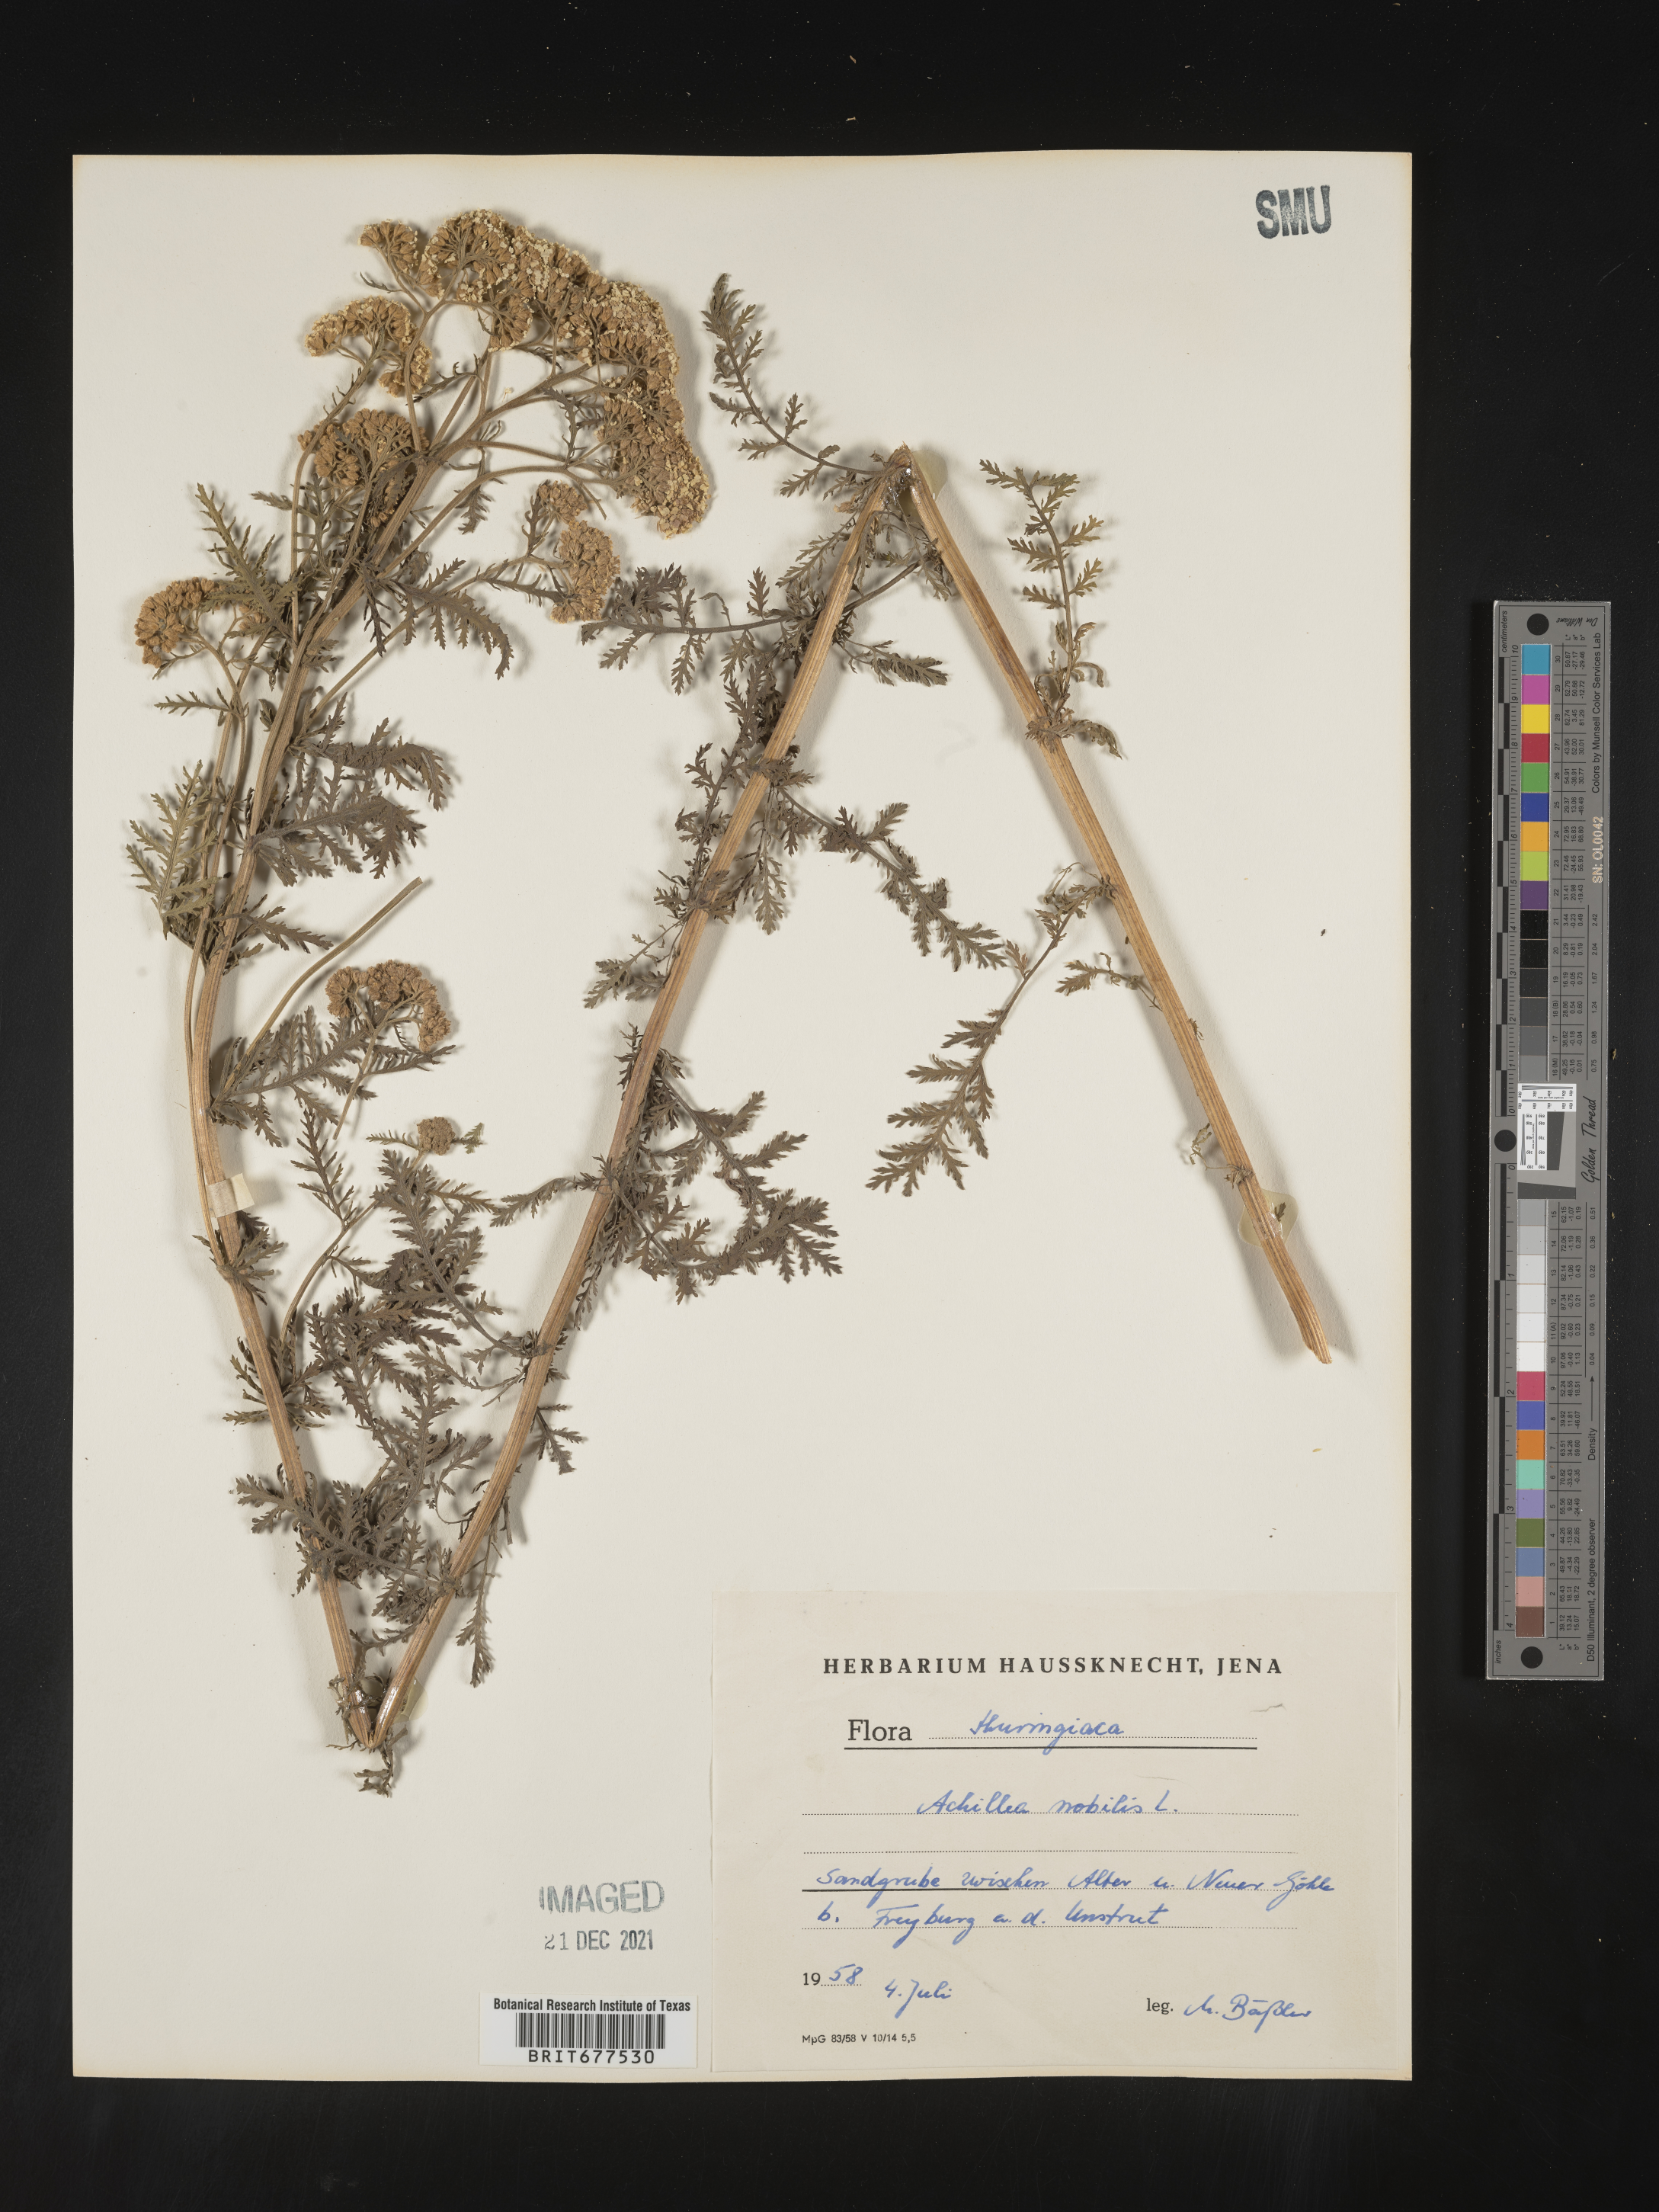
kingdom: Plantae
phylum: Tracheophyta
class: Magnoliopsida
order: Asterales
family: Asteraceae
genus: Achillea
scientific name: Achillea
